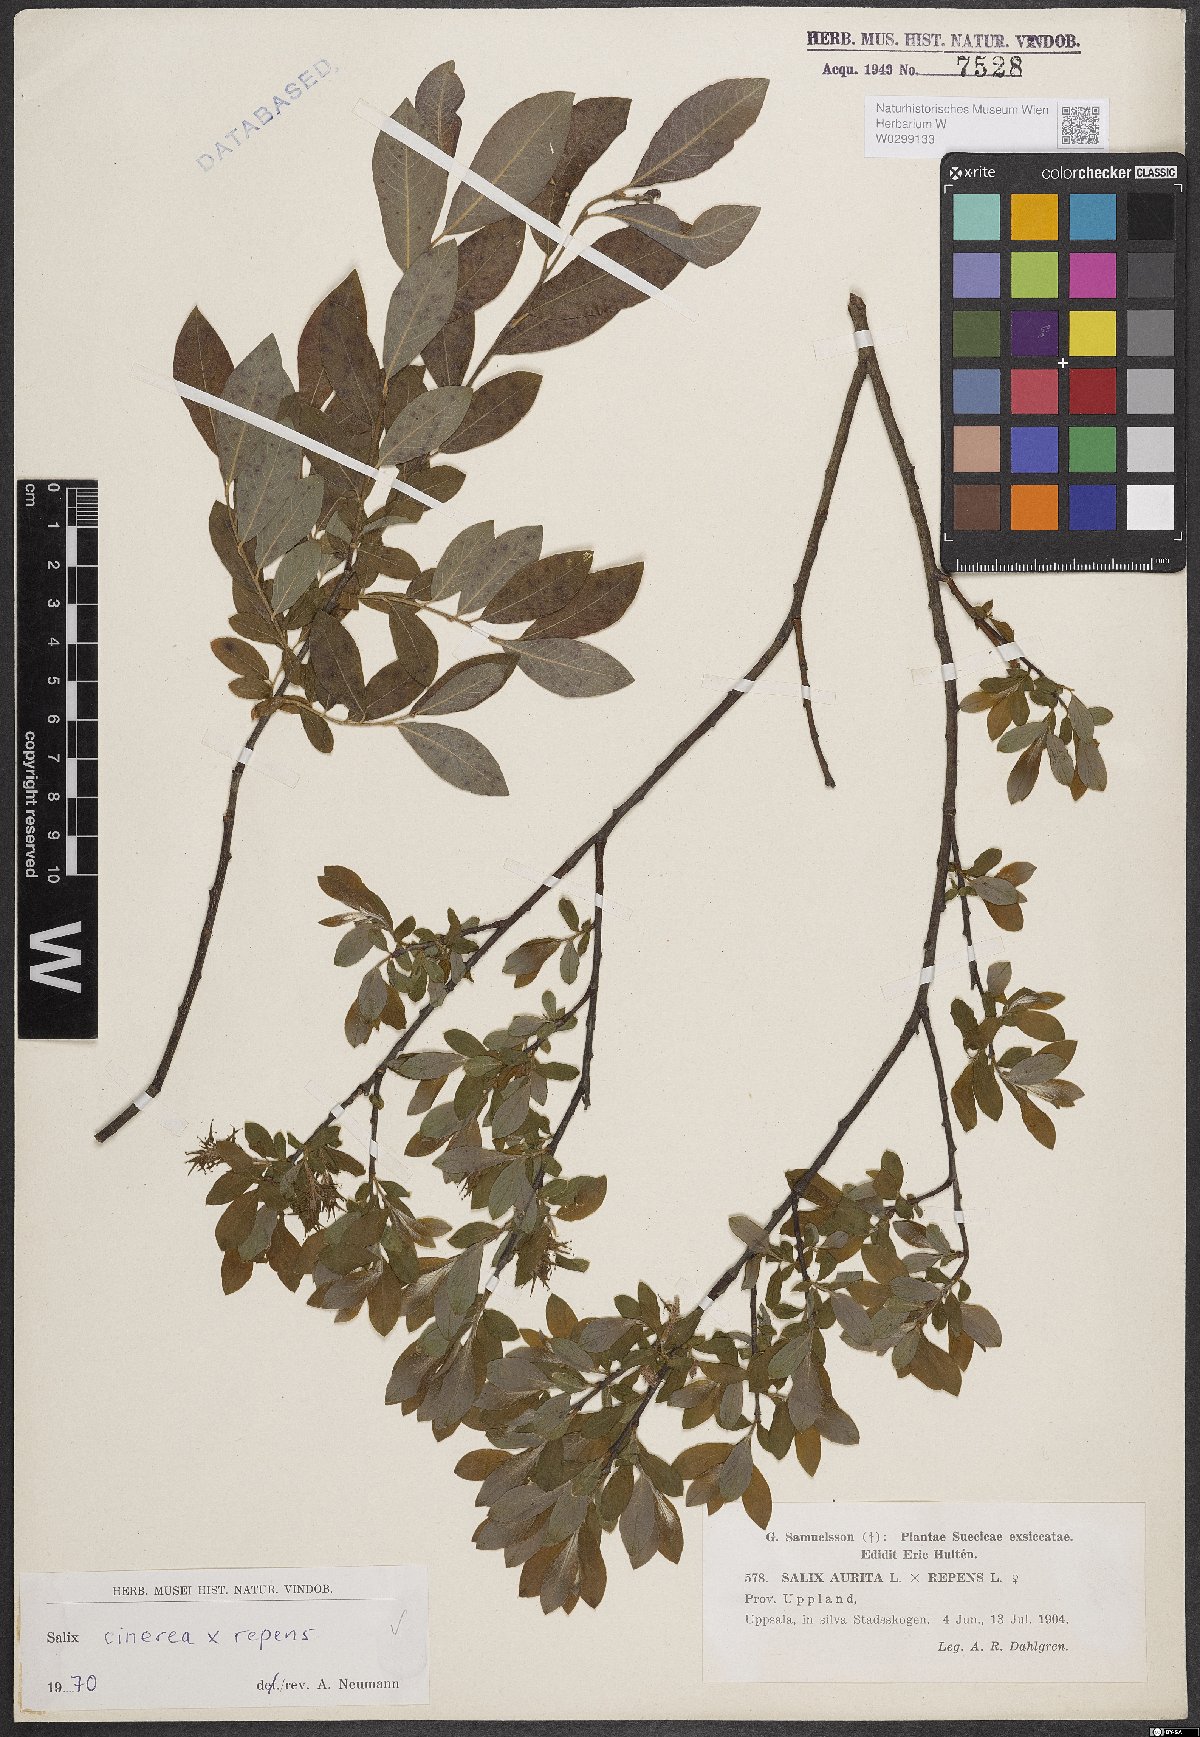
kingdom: Plantae
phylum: Tracheophyta
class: Magnoliopsida
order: Malpighiales
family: Salicaceae
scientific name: Salicaceae
